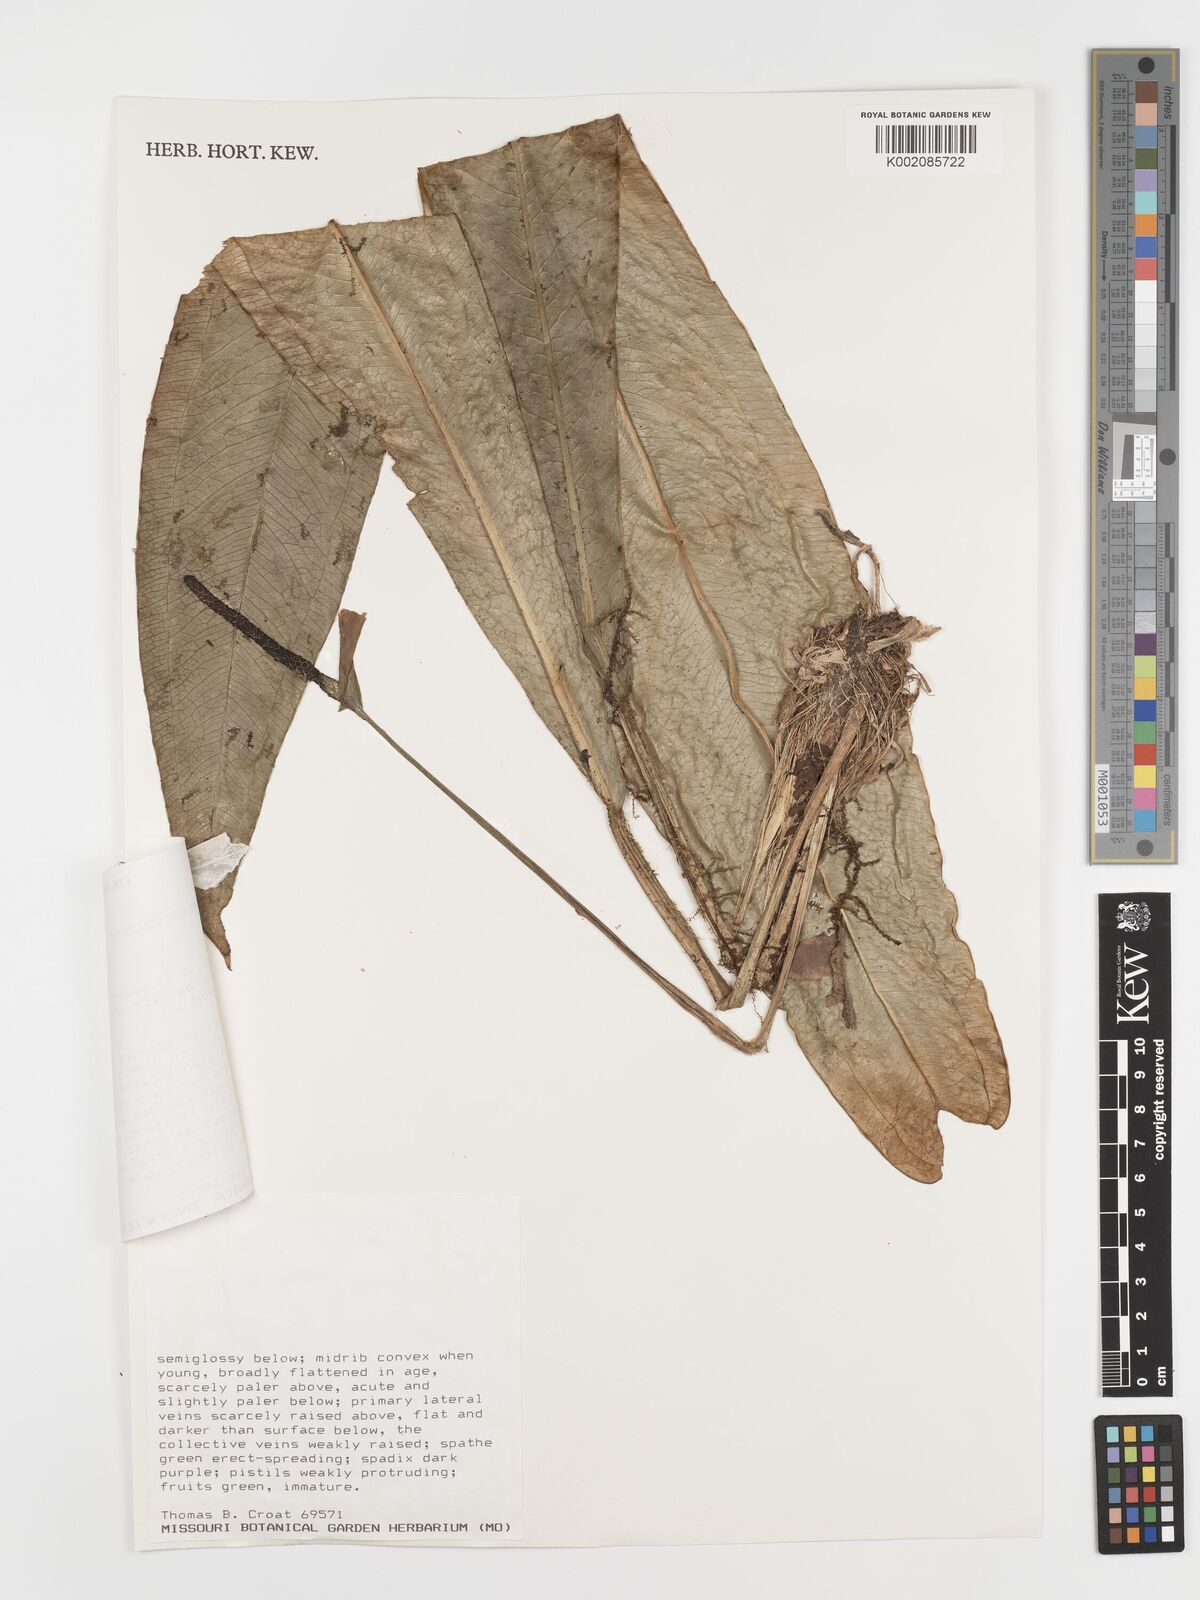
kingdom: Plantae
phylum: Tracheophyta
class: Liliopsida
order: Alismatales
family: Araceae
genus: Anthurium
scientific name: Anthurium carchiense
